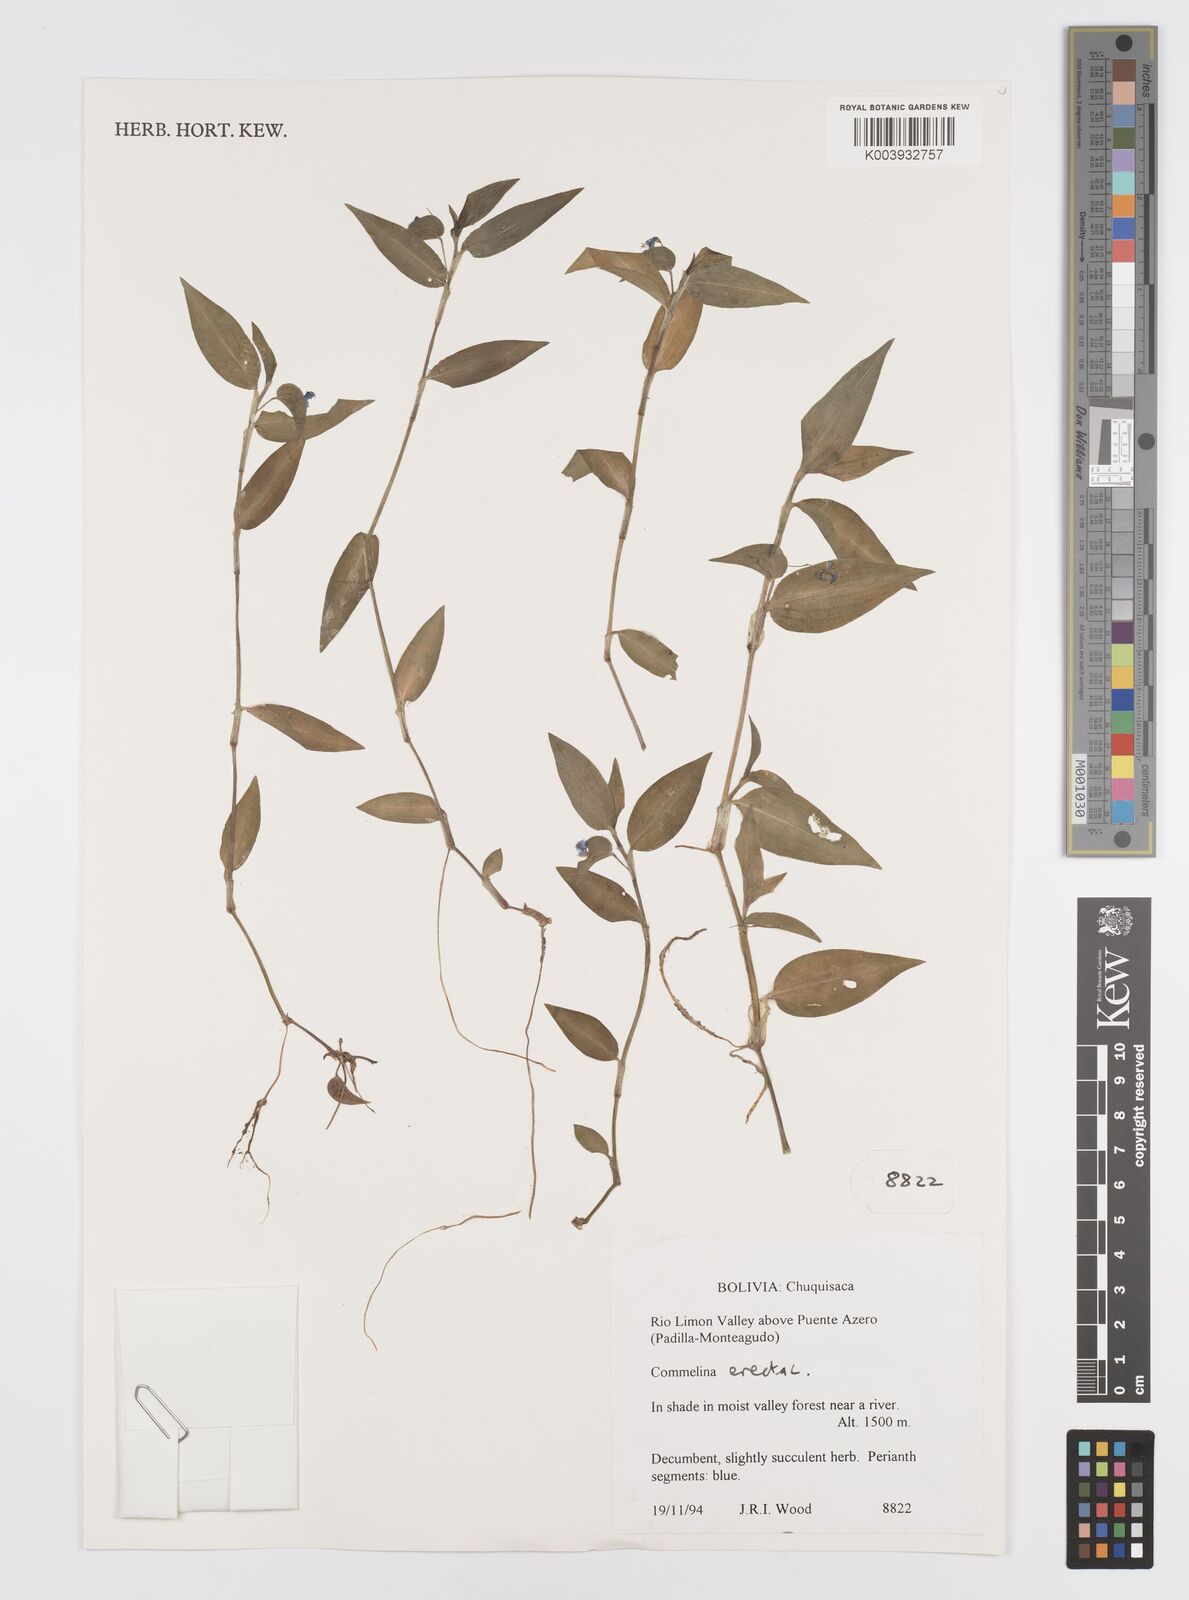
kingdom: Plantae
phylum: Tracheophyta
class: Liliopsida
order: Commelinales
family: Commelinaceae
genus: Commelina
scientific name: Commelina erecta
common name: Blousel blommetjie
